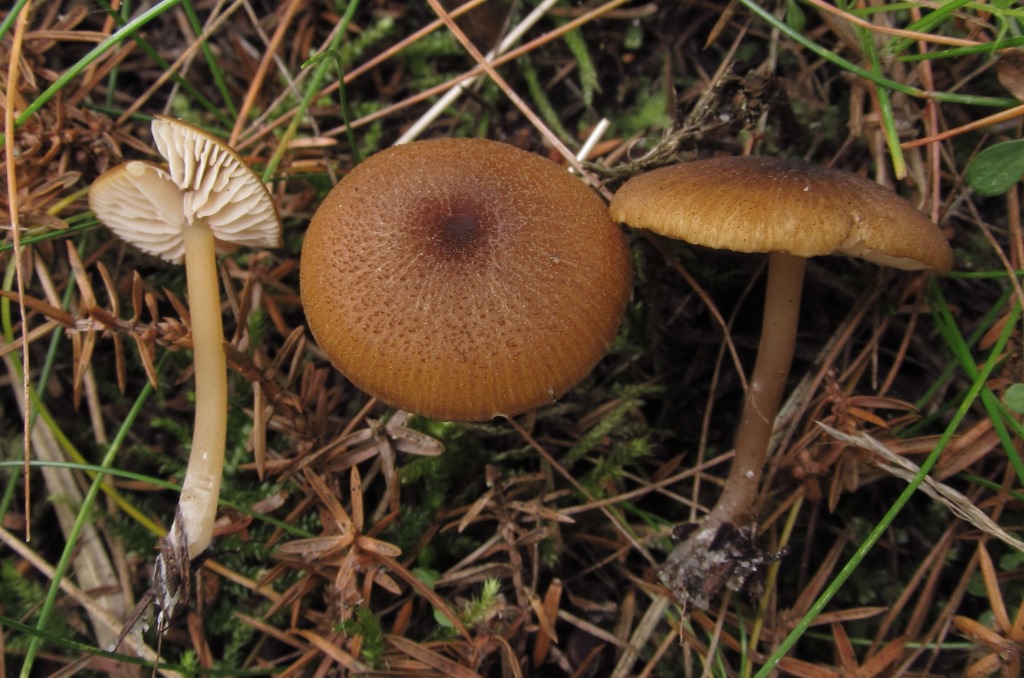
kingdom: Fungi
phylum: Basidiomycota
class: Agaricomycetes
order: Agaricales
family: Entolomataceae
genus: Entoloma
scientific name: Entoloma formosum
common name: brungul rødblad
